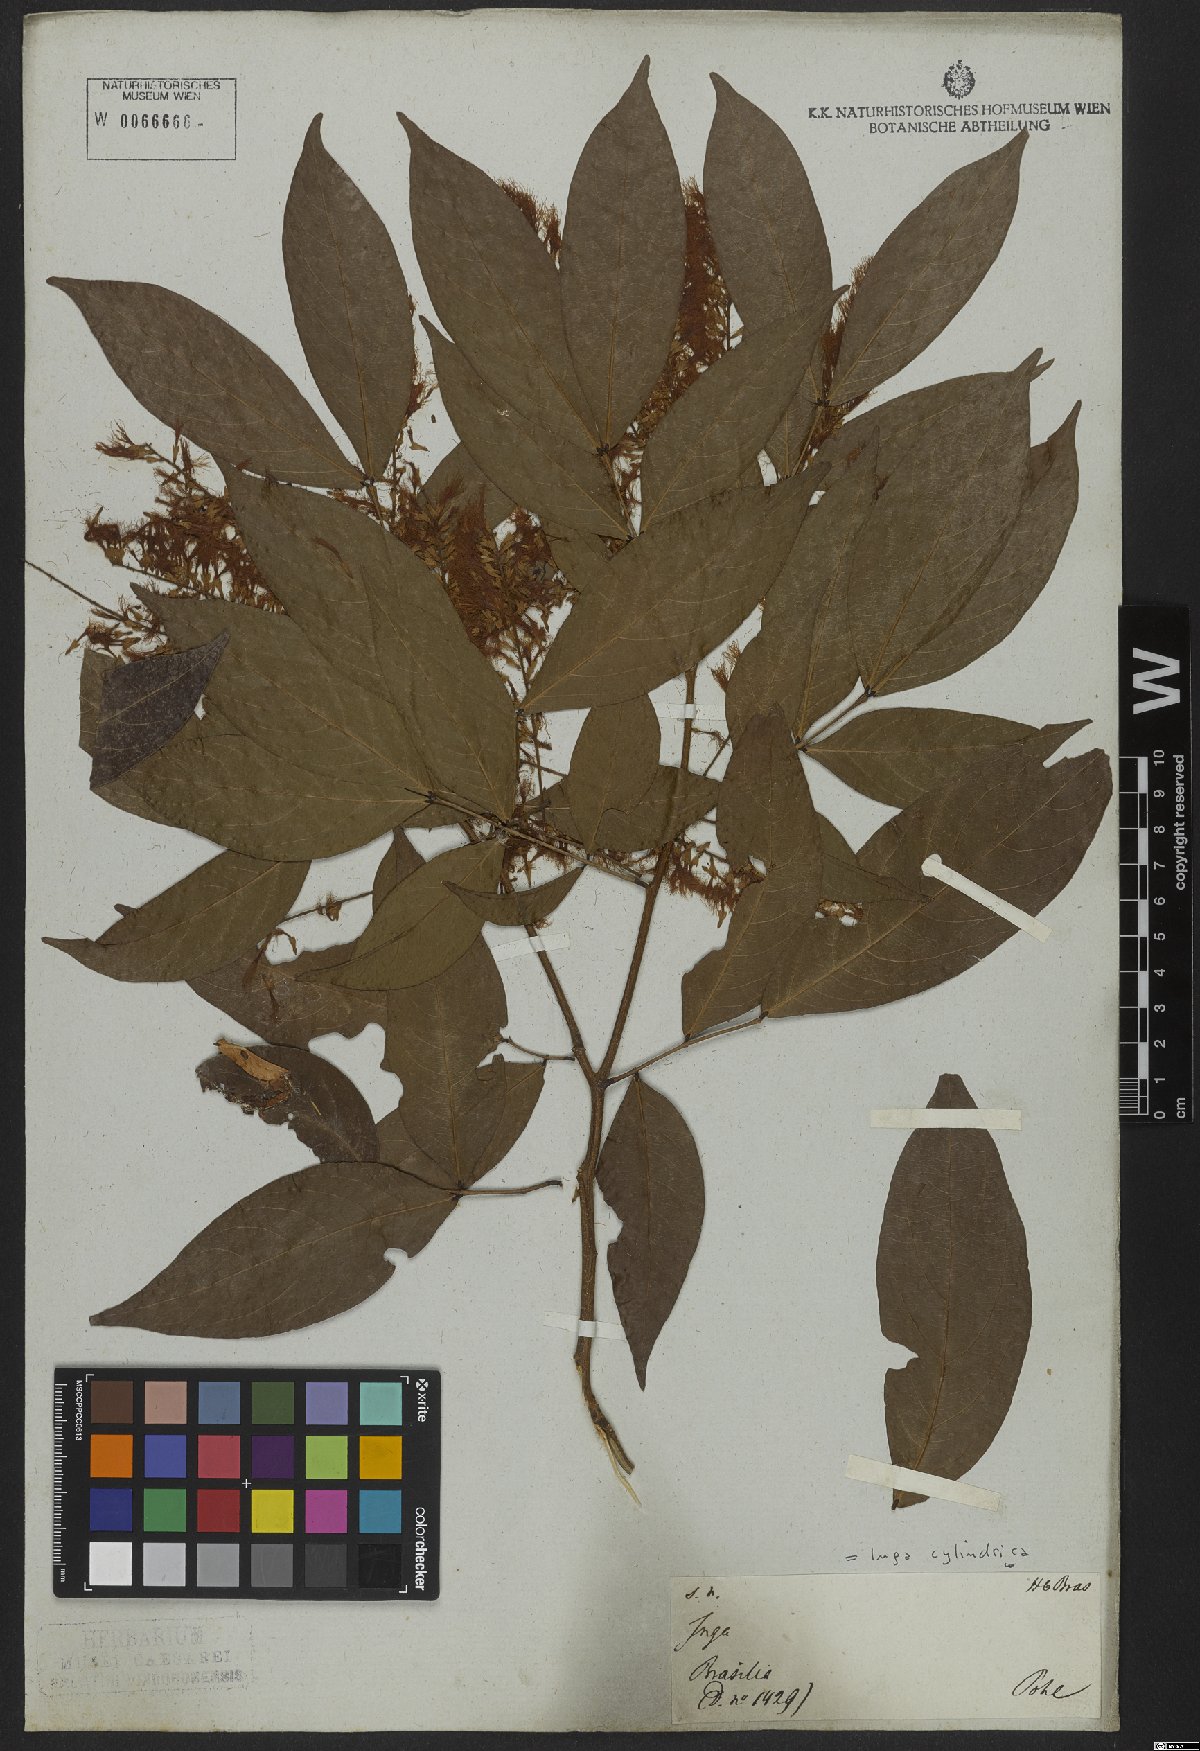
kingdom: Plantae
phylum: Tracheophyta
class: Magnoliopsida
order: Fabales
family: Fabaceae
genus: Inga
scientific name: Inga cylindrica
